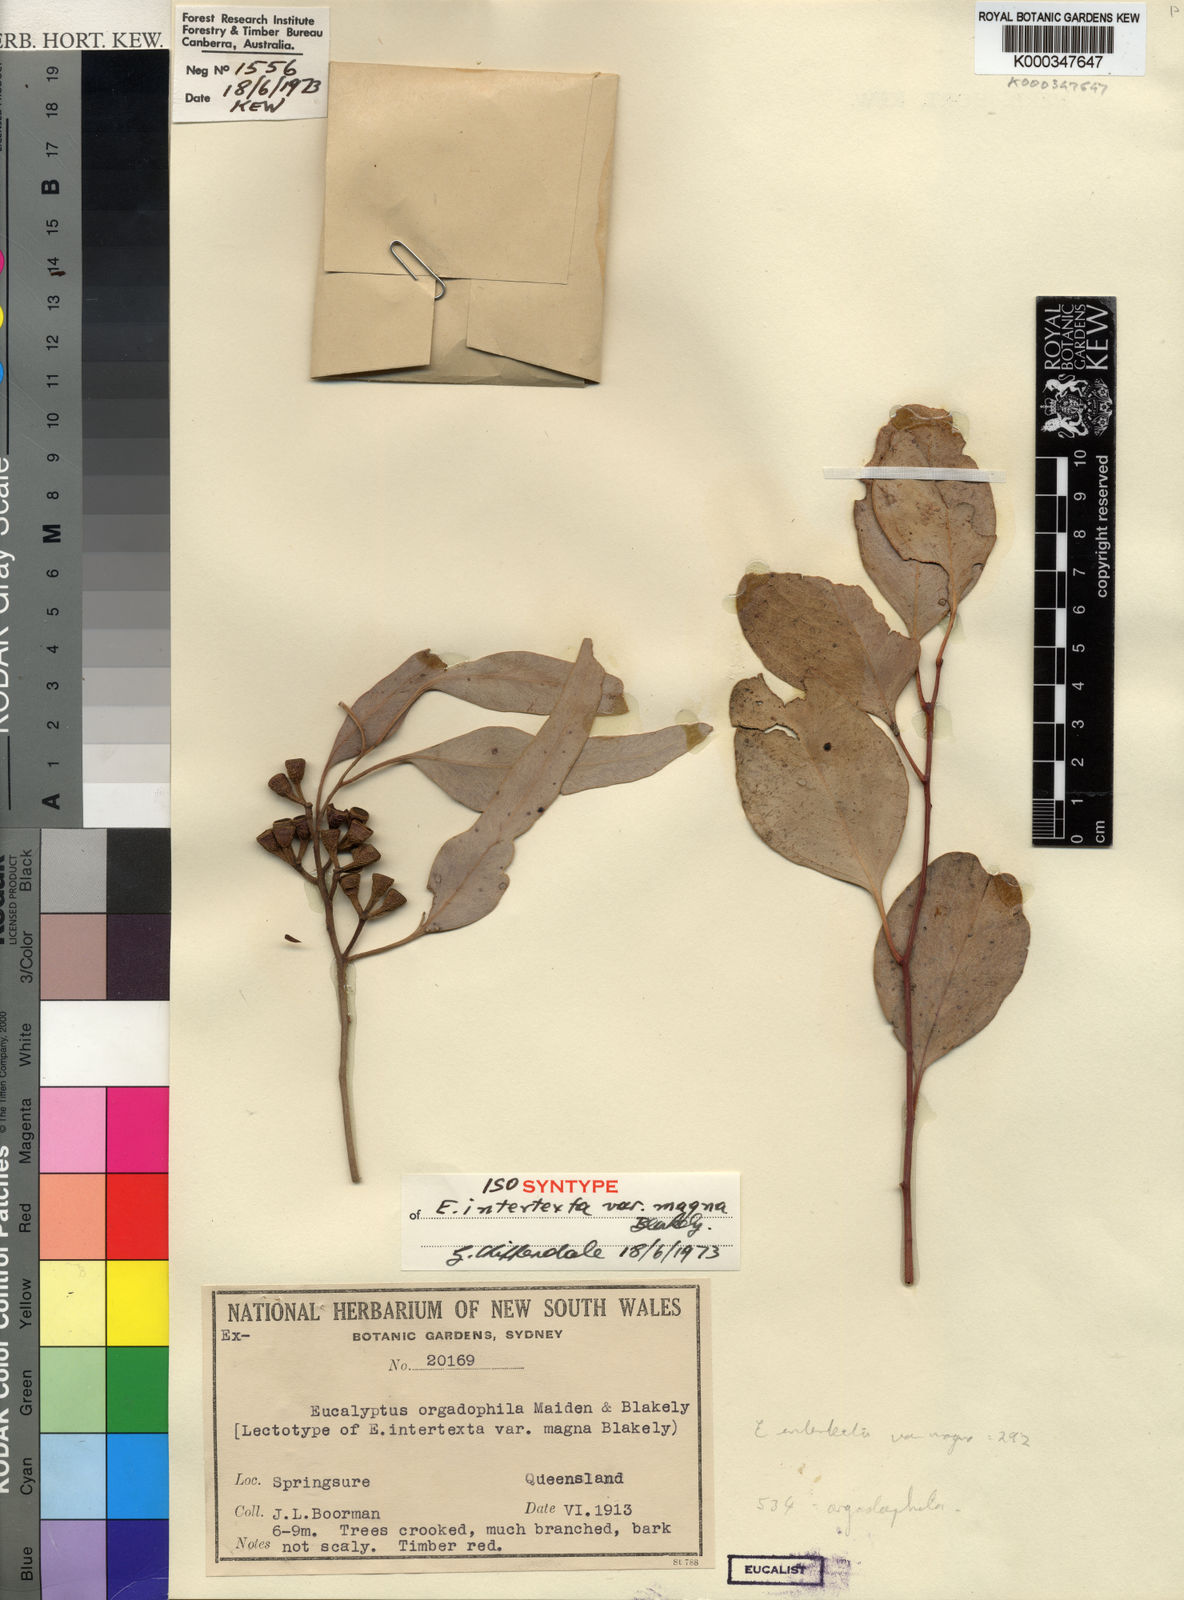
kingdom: Plantae
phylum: Tracheophyta
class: Magnoliopsida
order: Myrtales
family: Myrtaceae
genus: Eucalyptus
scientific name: Eucalyptus orgadophila
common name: Mountain coolibah
